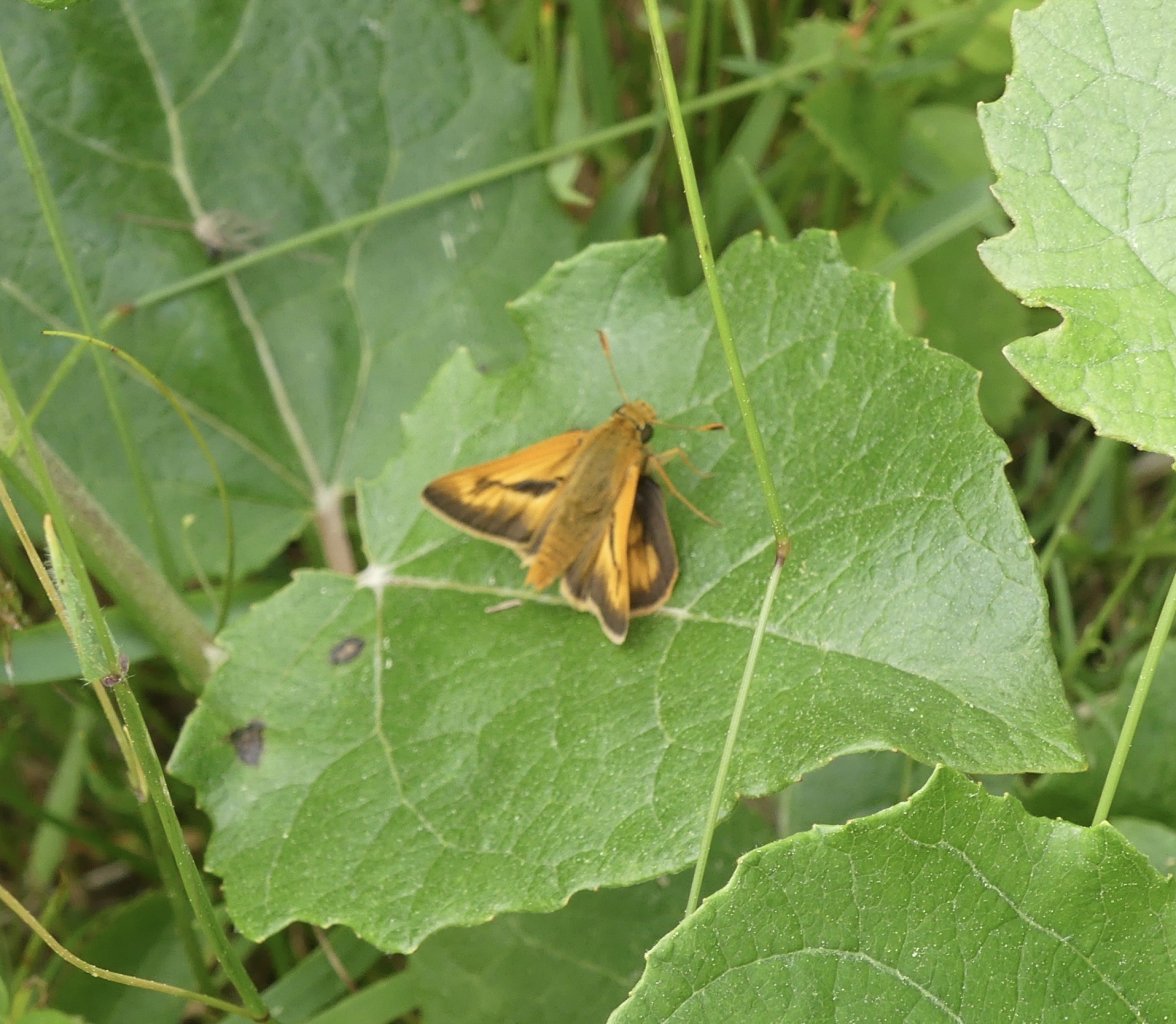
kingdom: Animalia
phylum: Arthropoda
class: Insecta
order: Lepidoptera
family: Hesperiidae
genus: Polites
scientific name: Polites
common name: Long Dash Skipper
